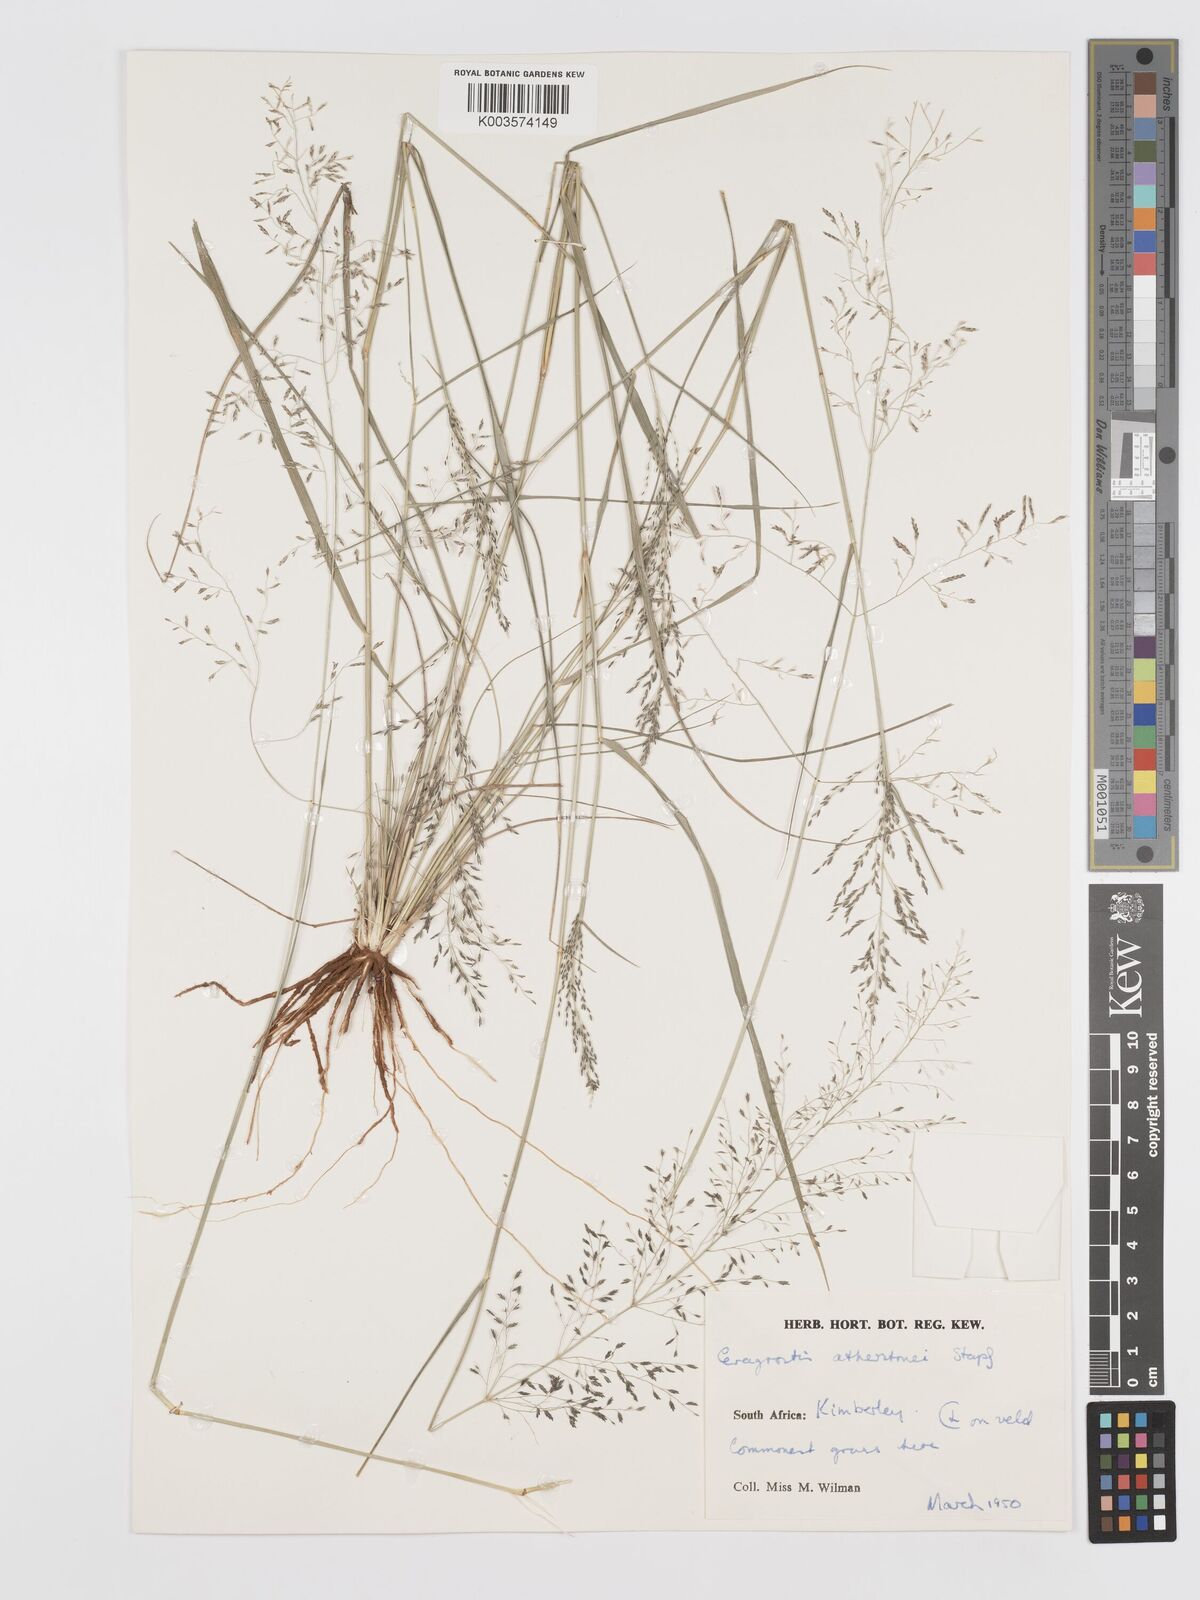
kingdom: Plantae
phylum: Tracheophyta
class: Liliopsida
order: Poales
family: Poaceae
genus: Eragrostis
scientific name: Eragrostis cylindriflora
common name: Cylinderflower lovegrass
